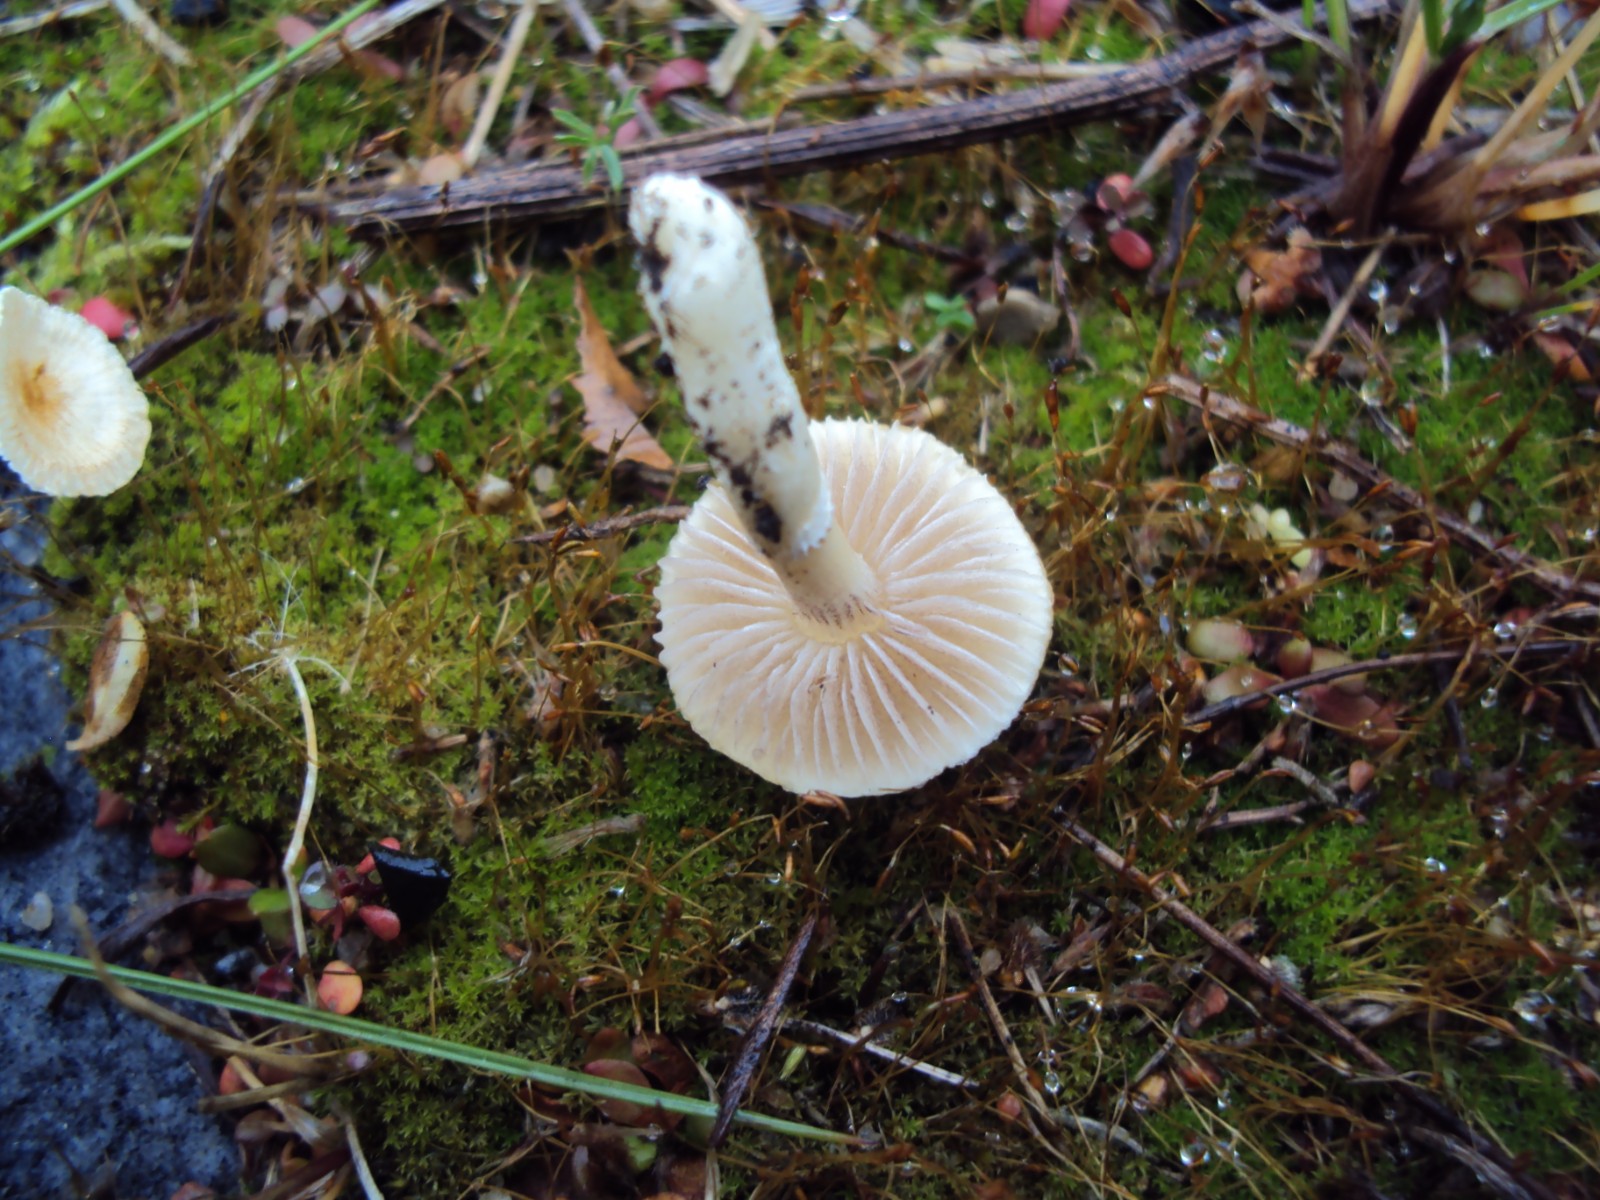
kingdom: Fungi
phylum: Basidiomycota
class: Agaricomycetes
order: Agaricales
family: Strophariaceae
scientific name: Strophariaceae
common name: bredbladfamilien
